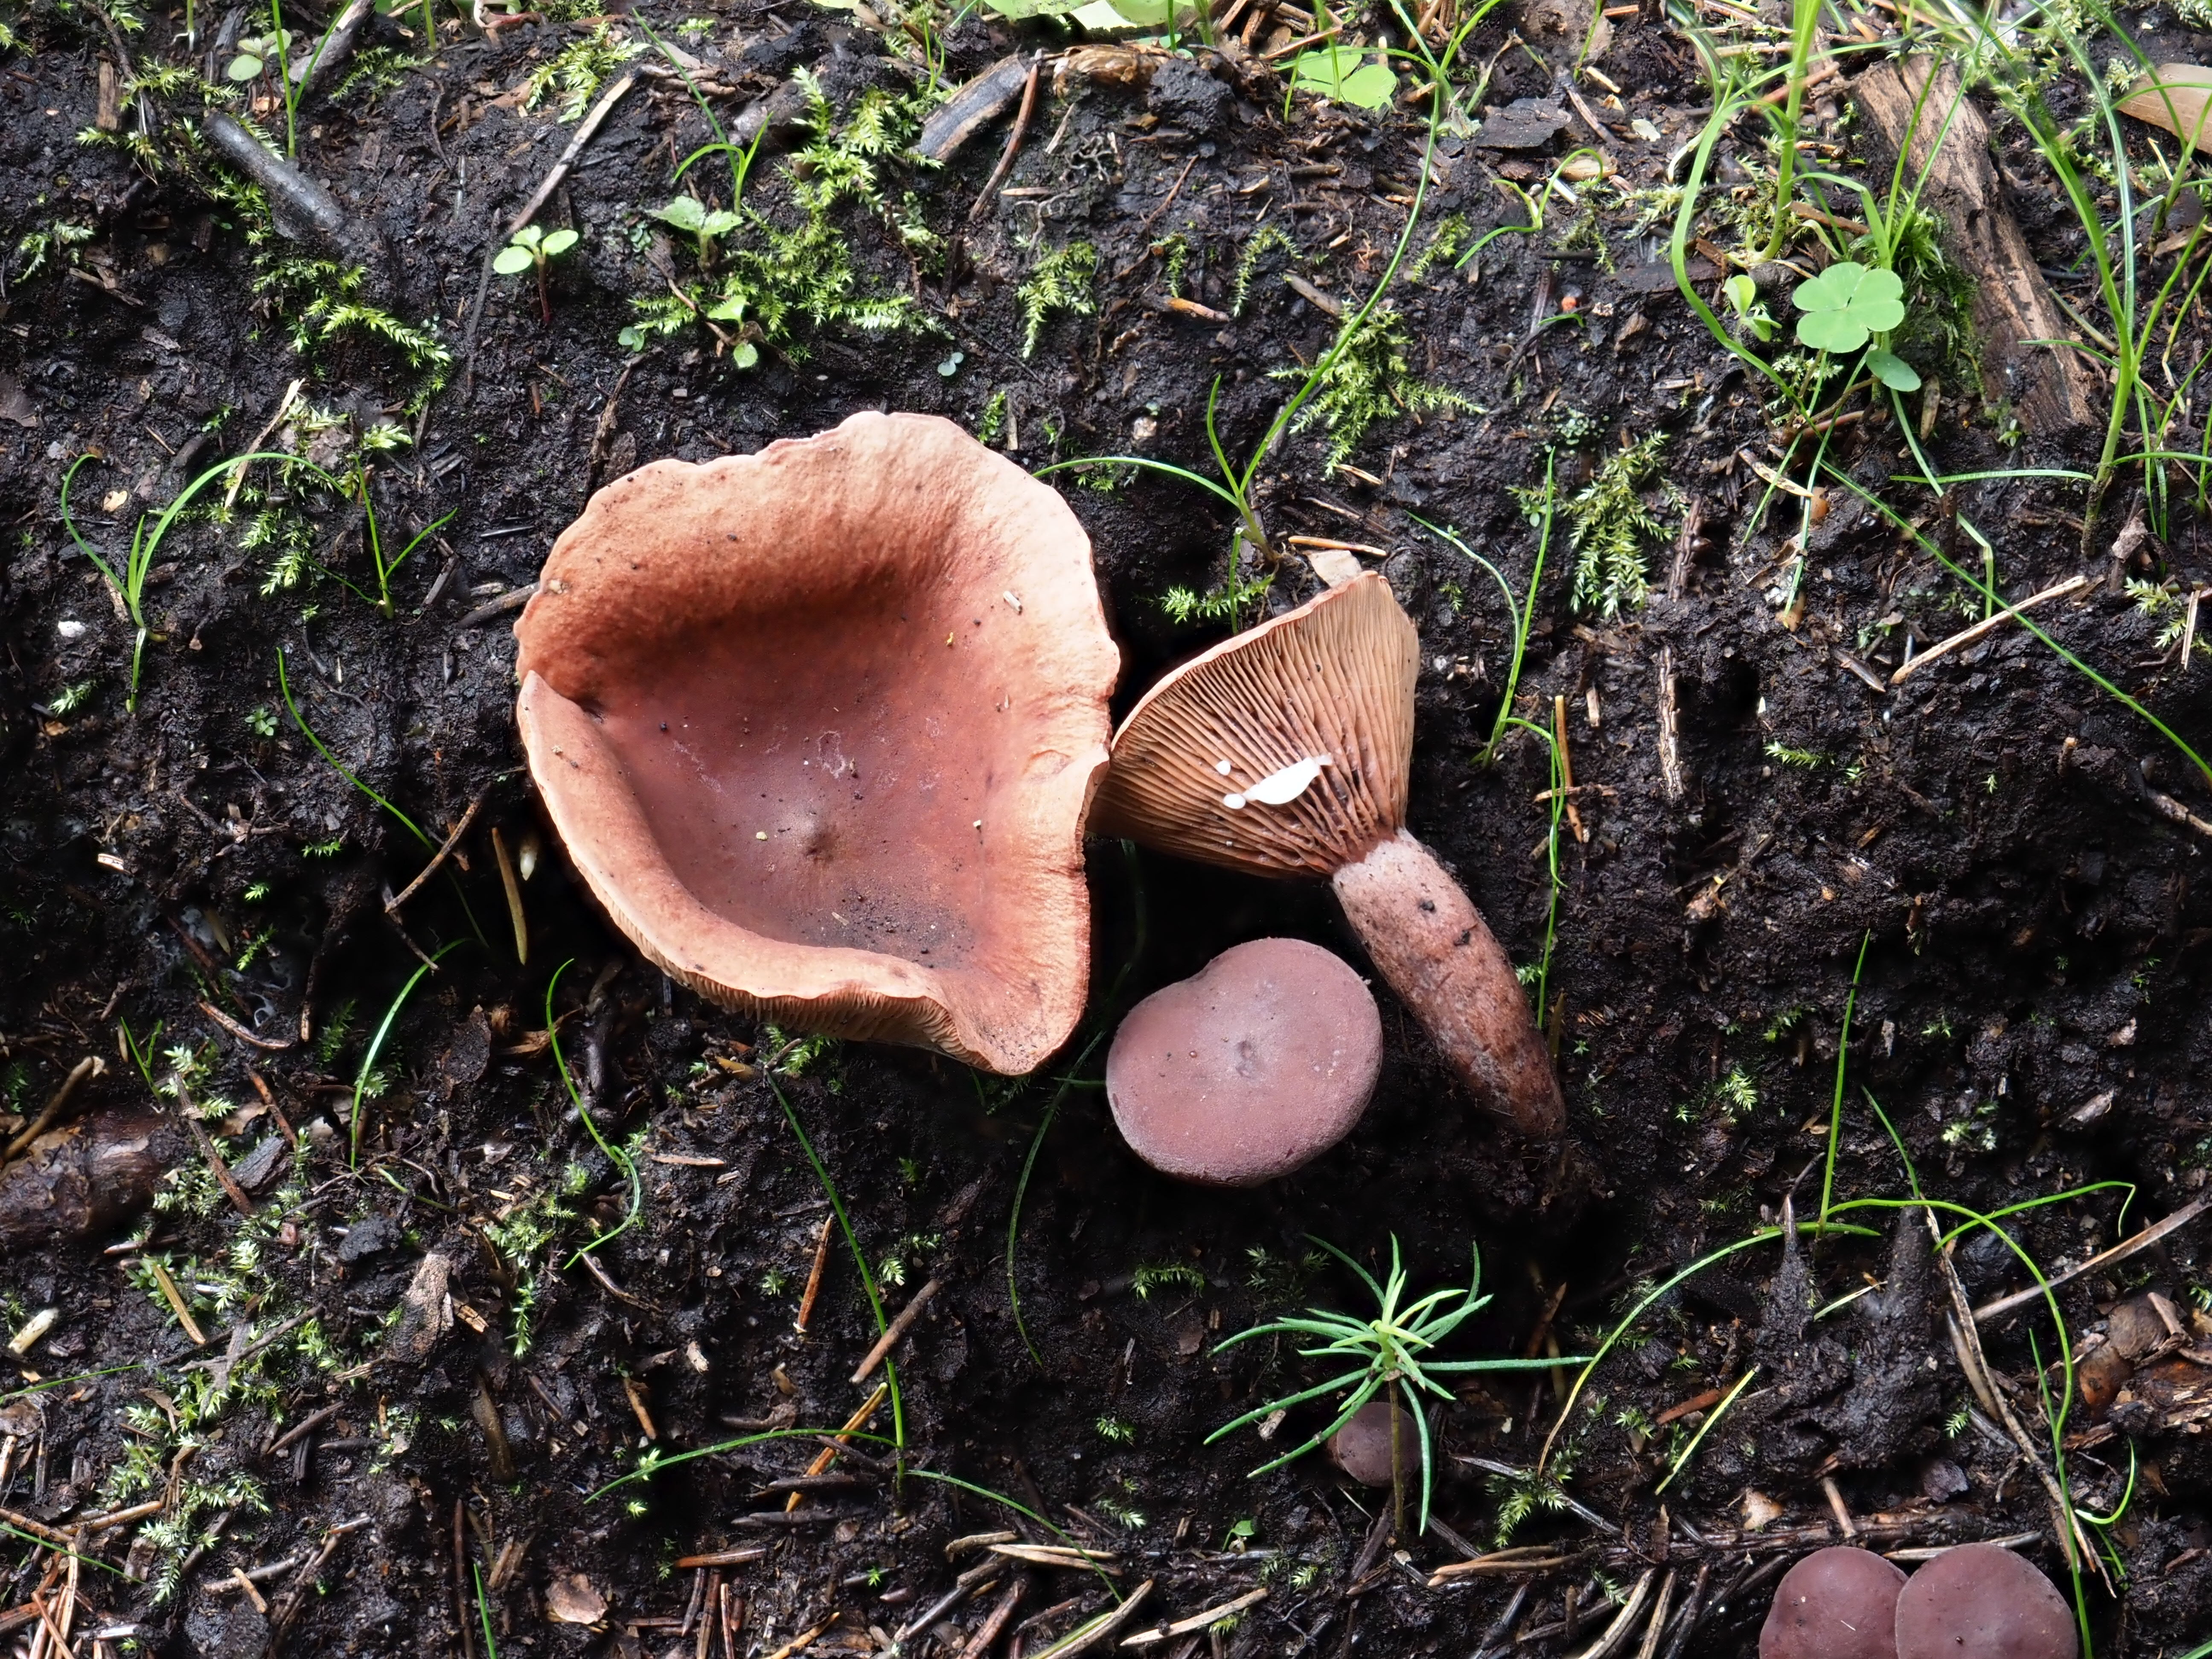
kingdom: Fungi
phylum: Basidiomycota
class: Agaricomycetes
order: Russulales
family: Russulaceae
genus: Lactarius
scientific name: Lactarius camphoratus
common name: Curry milkcap
